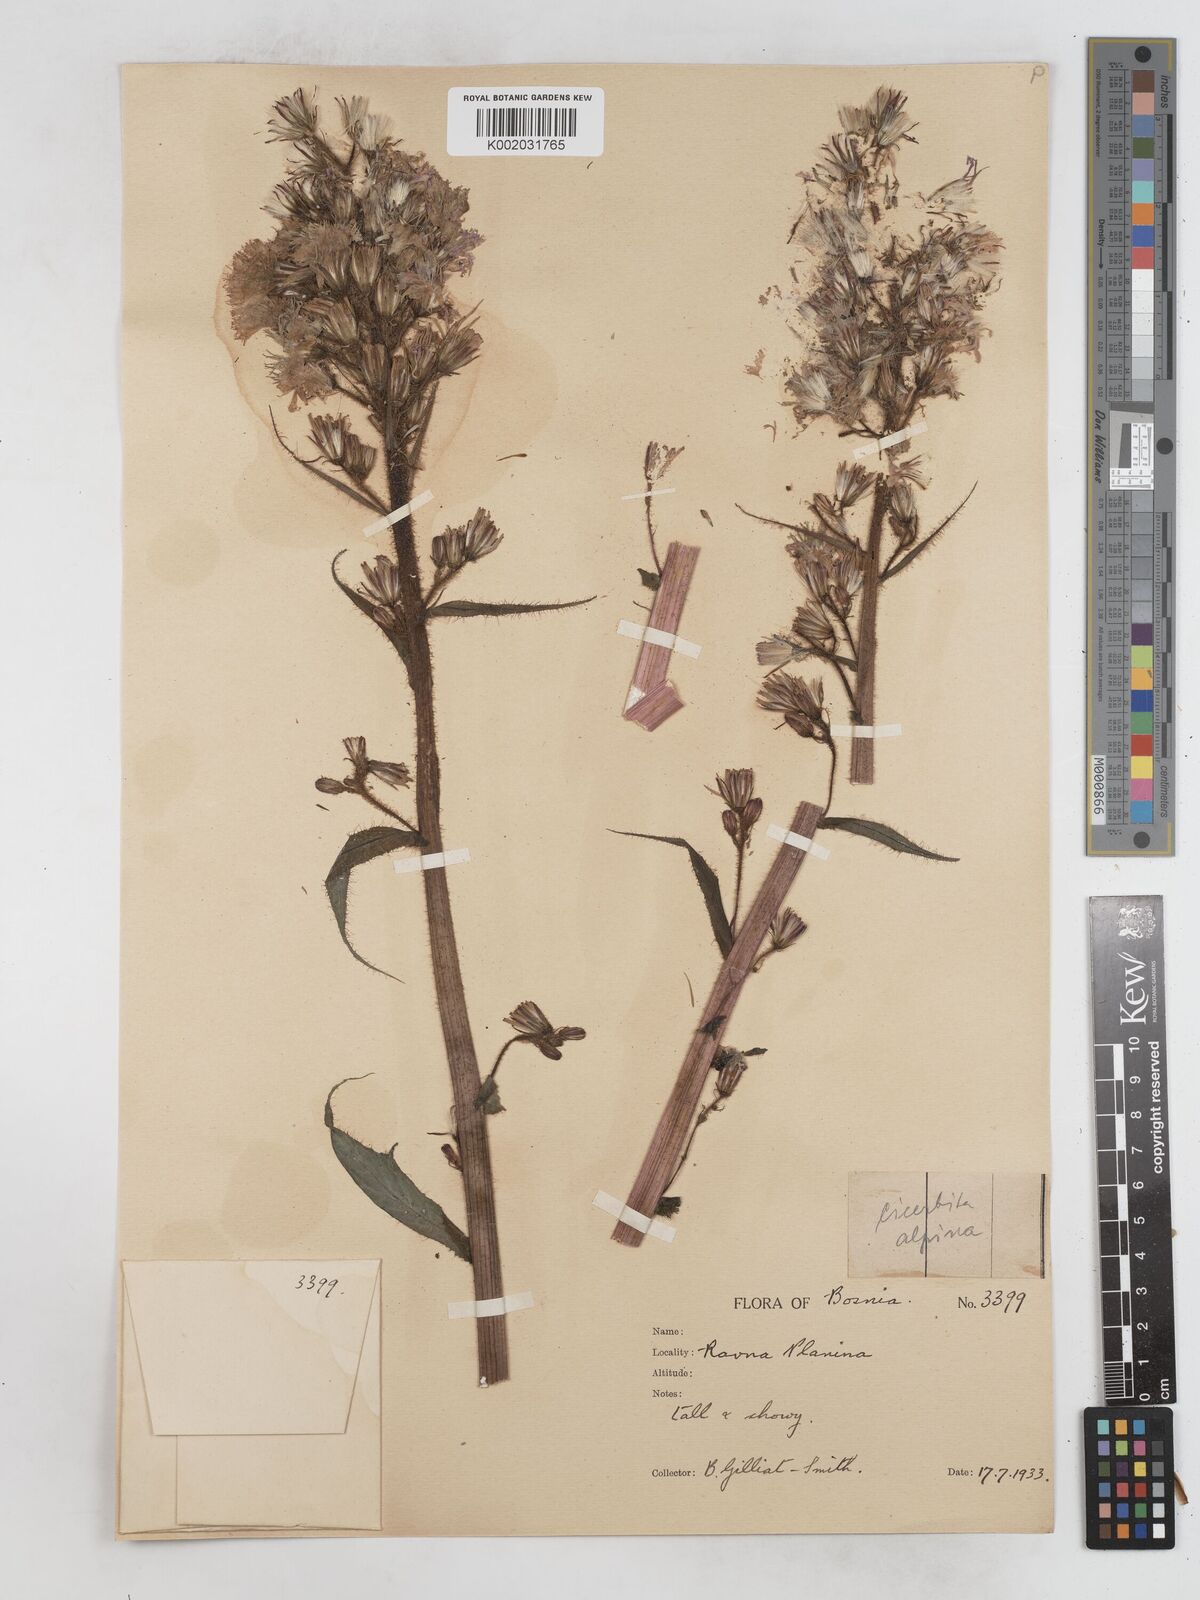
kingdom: Plantae
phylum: Tracheophyta
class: Magnoliopsida
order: Asterales
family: Asteraceae
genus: Cicerbita
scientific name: Cicerbita alpina
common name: Alpine blue-sow-thistle
